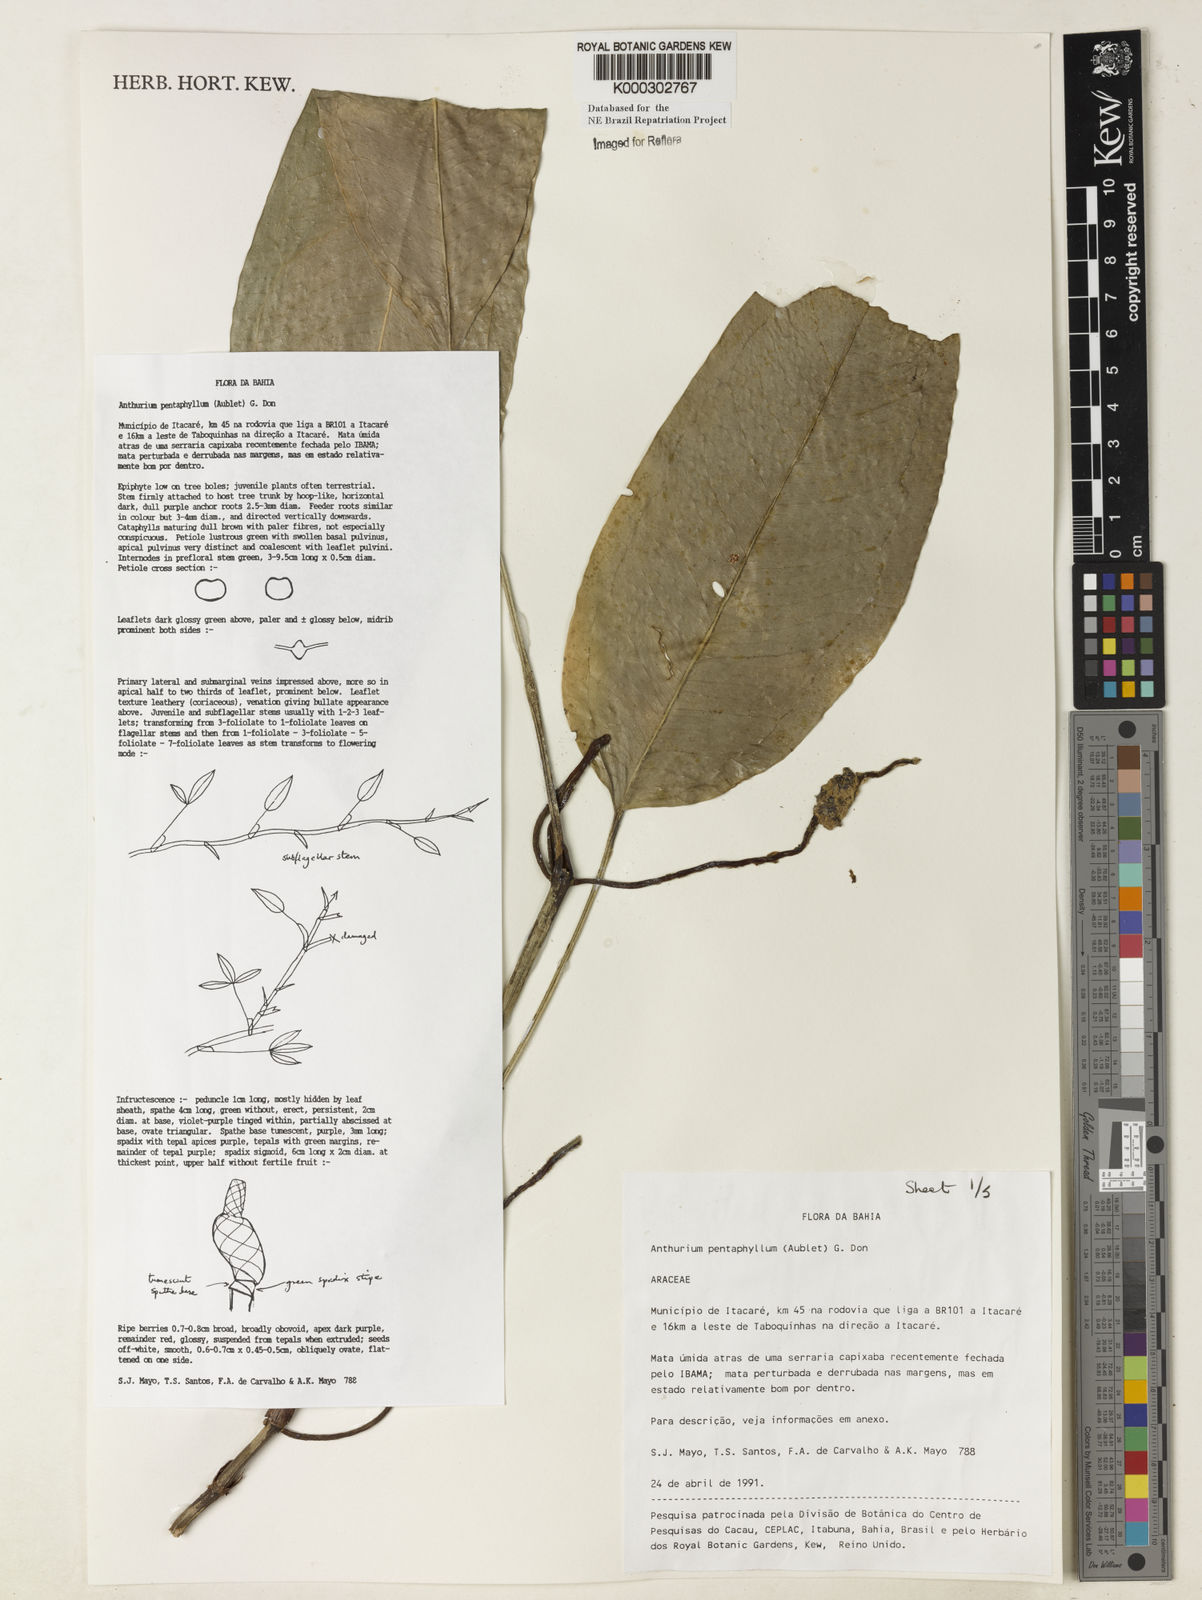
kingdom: Plantae
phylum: Tracheophyta
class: Liliopsida
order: Alismatales
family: Araceae
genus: Anthurium
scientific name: Anthurium pentaphyllum
